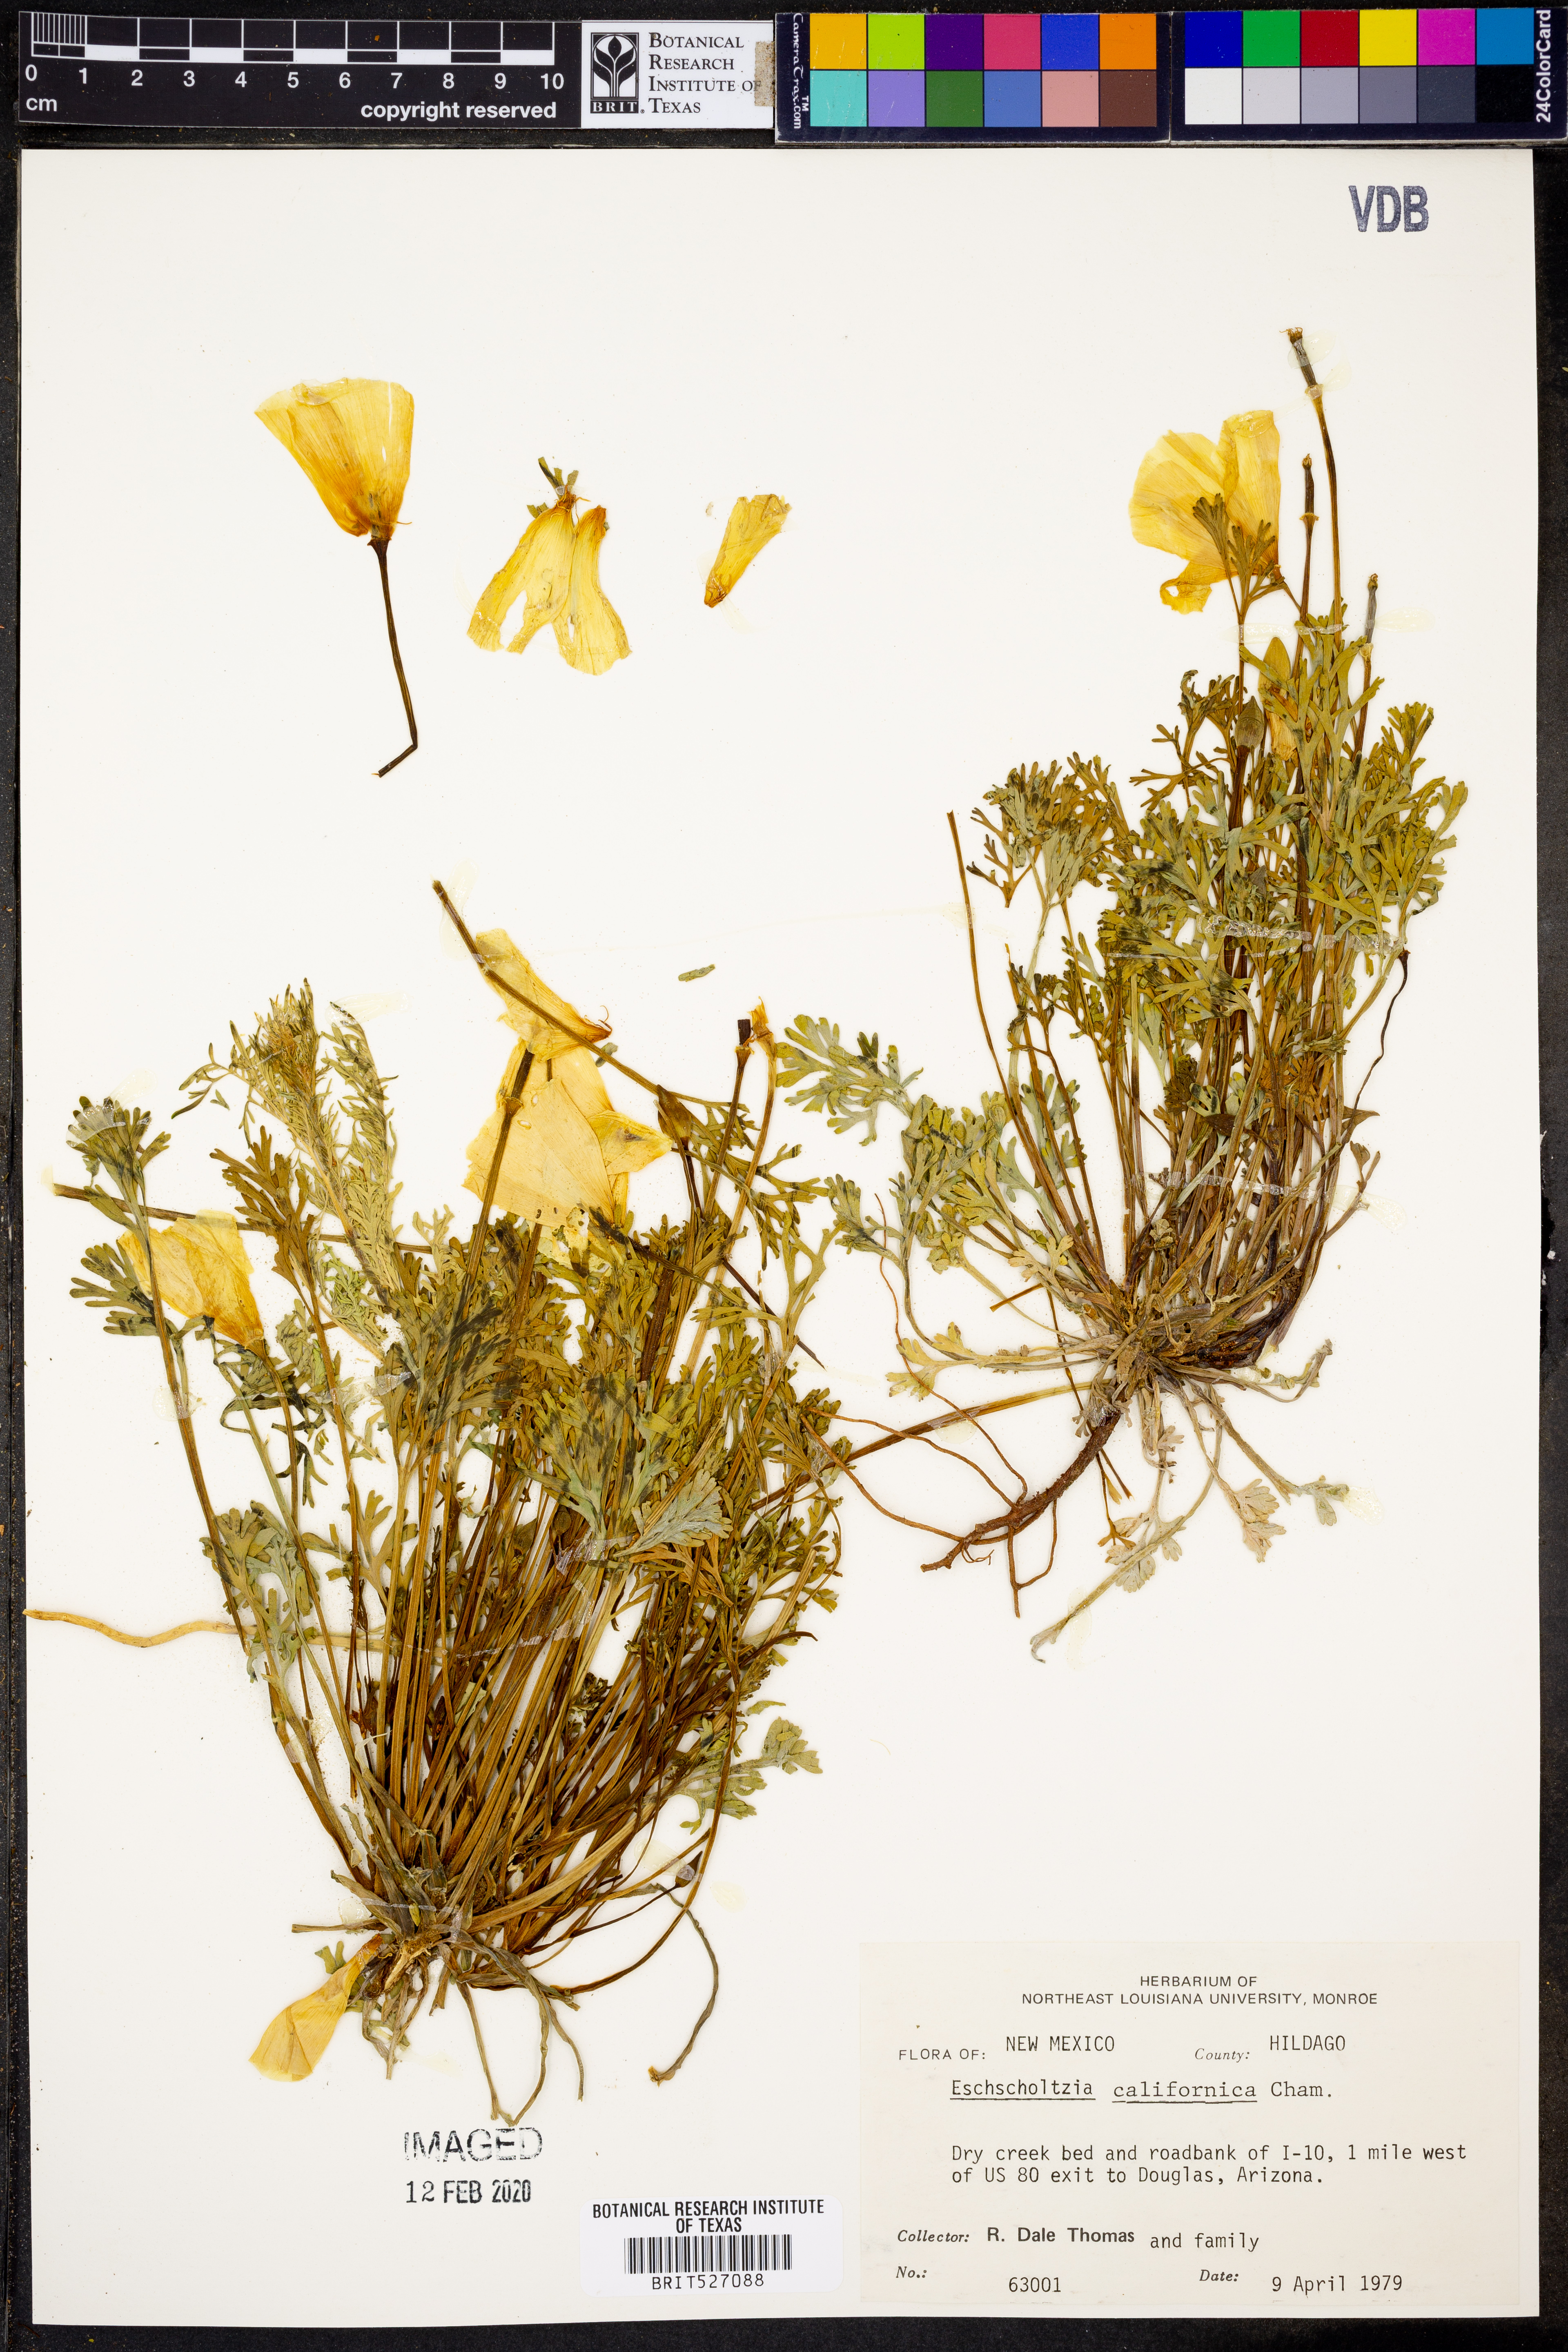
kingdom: Plantae
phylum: Tracheophyta
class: Magnoliopsida
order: Ranunculales
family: Papaveraceae
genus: Eschscholzia
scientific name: Eschscholzia californica
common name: California poppy
